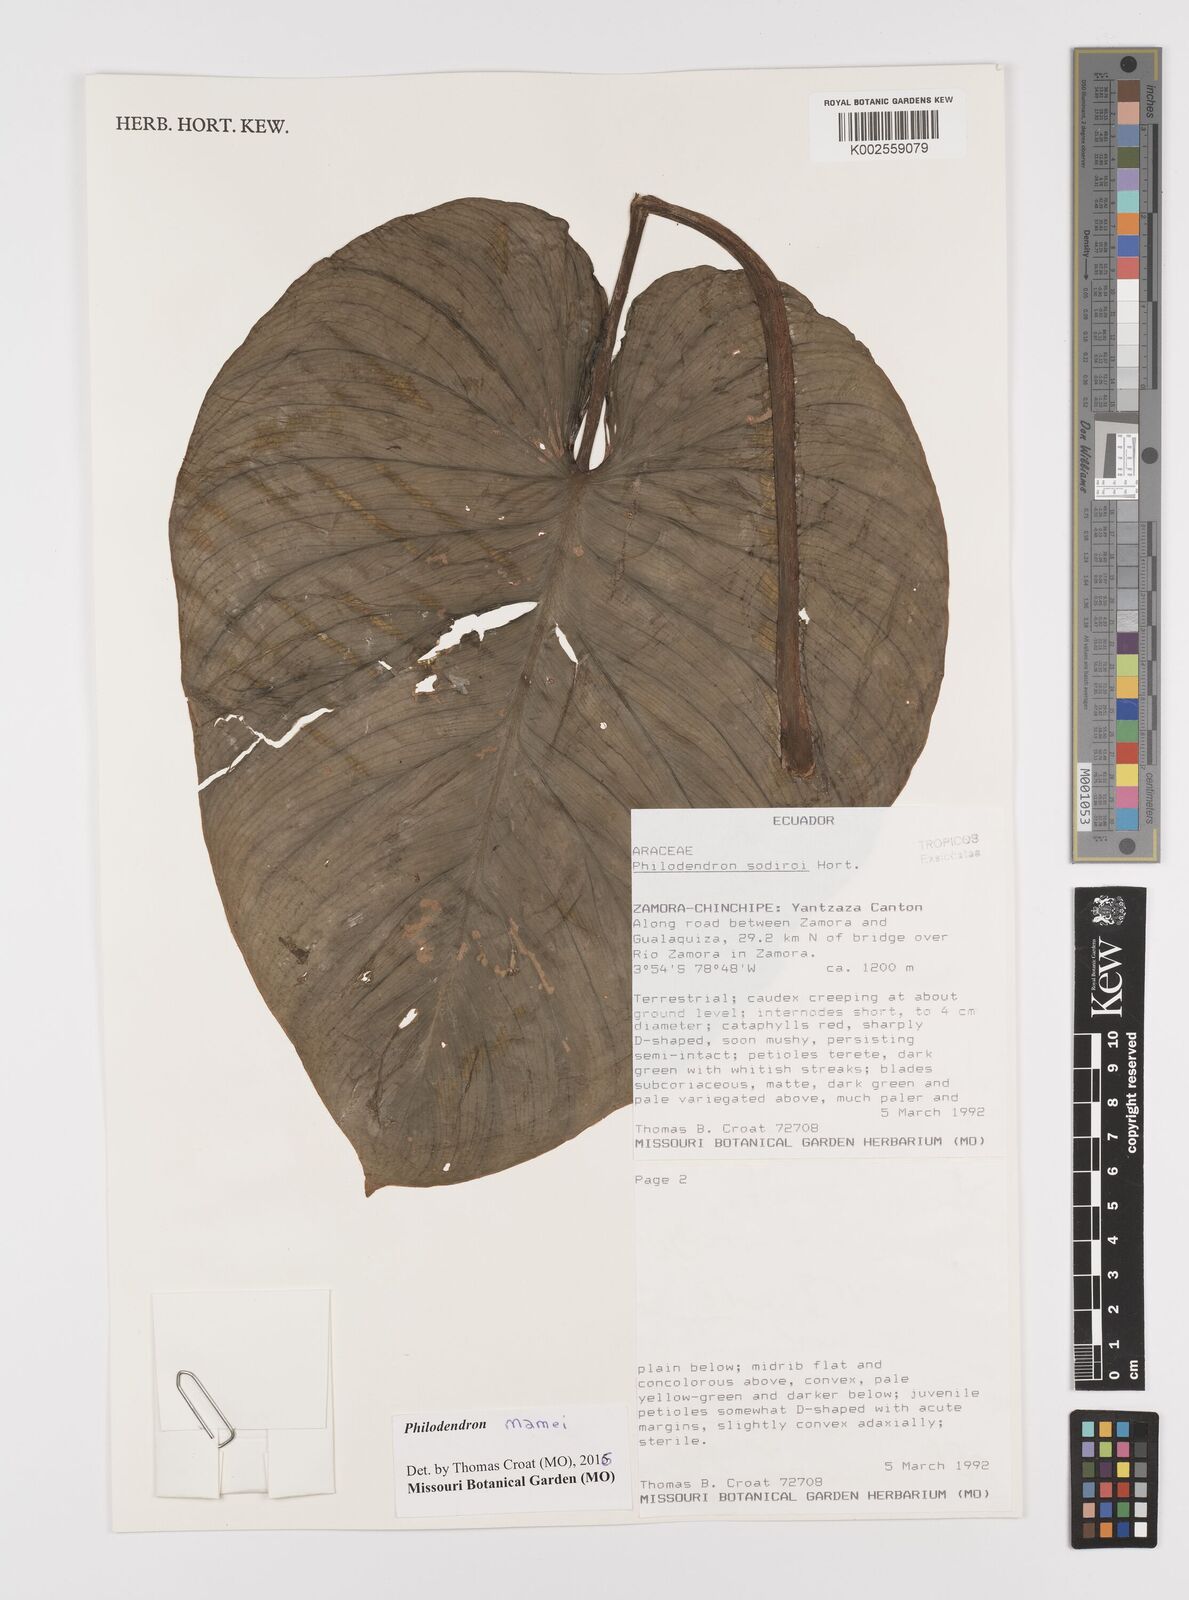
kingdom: Plantae
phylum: Tracheophyta
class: Liliopsida
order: Alismatales
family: Araceae
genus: Philodendron
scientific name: Philodendron mamei
